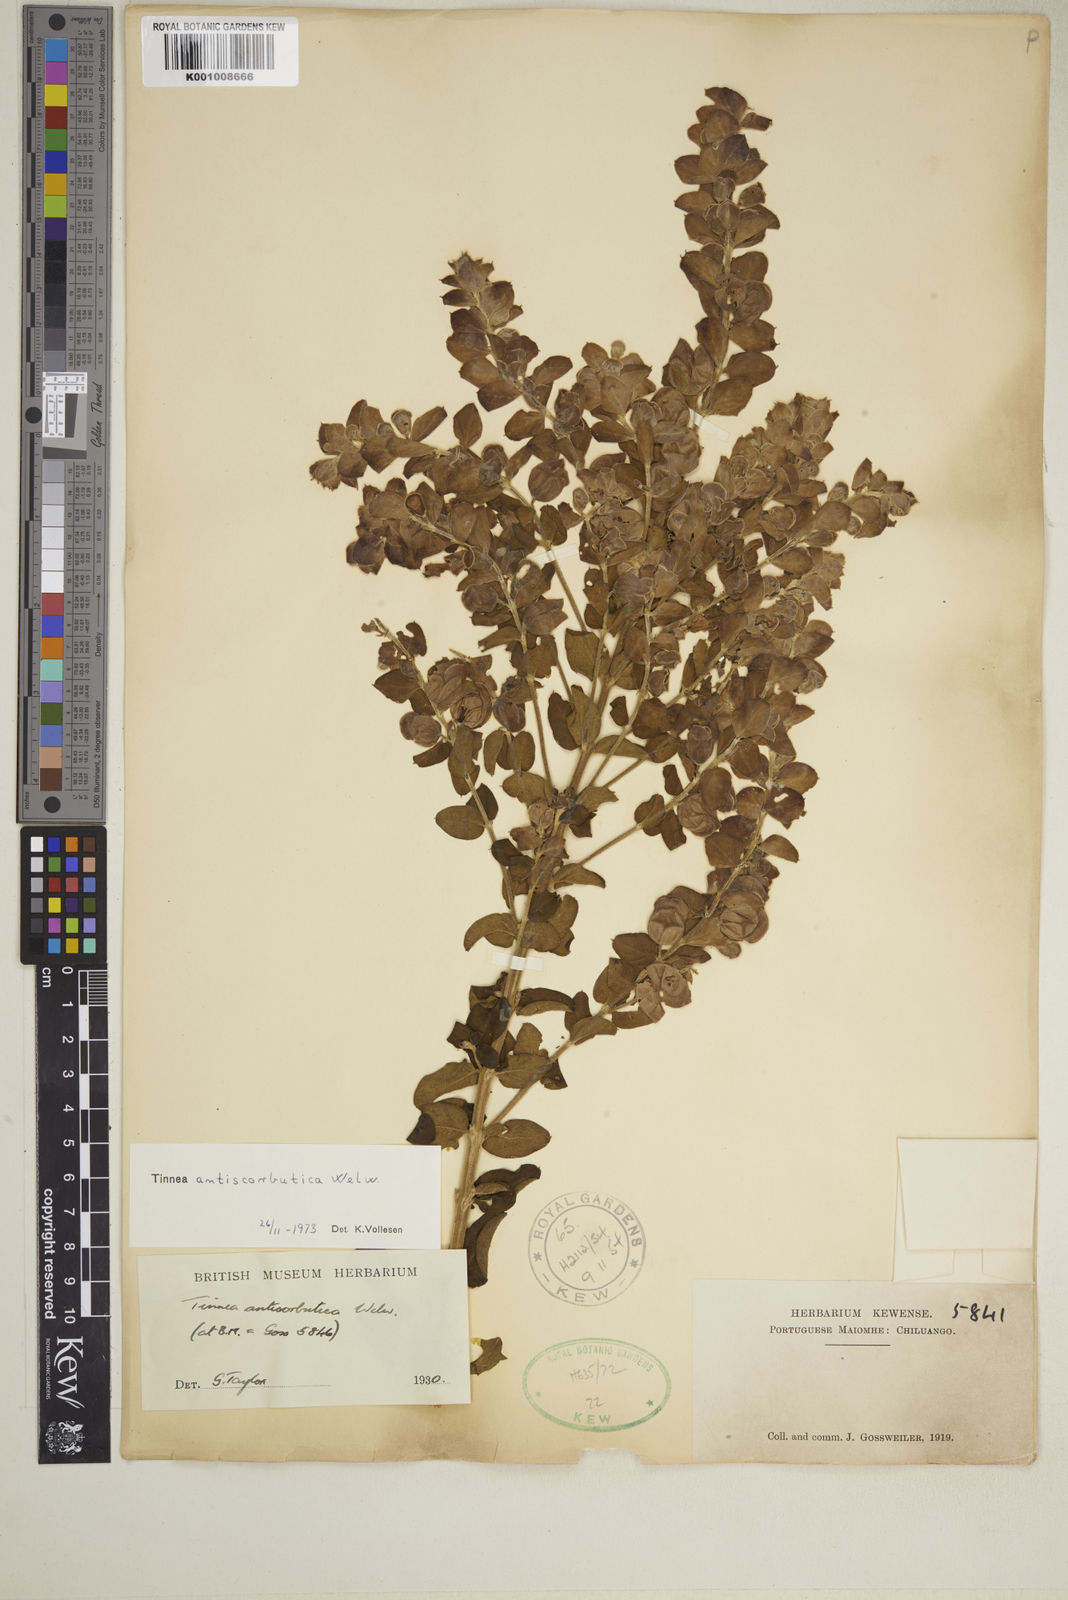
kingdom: Plantae
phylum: Tracheophyta
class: Magnoliopsida
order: Lamiales
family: Lamiaceae
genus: Tinnea
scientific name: Tinnea antiscorbutica
